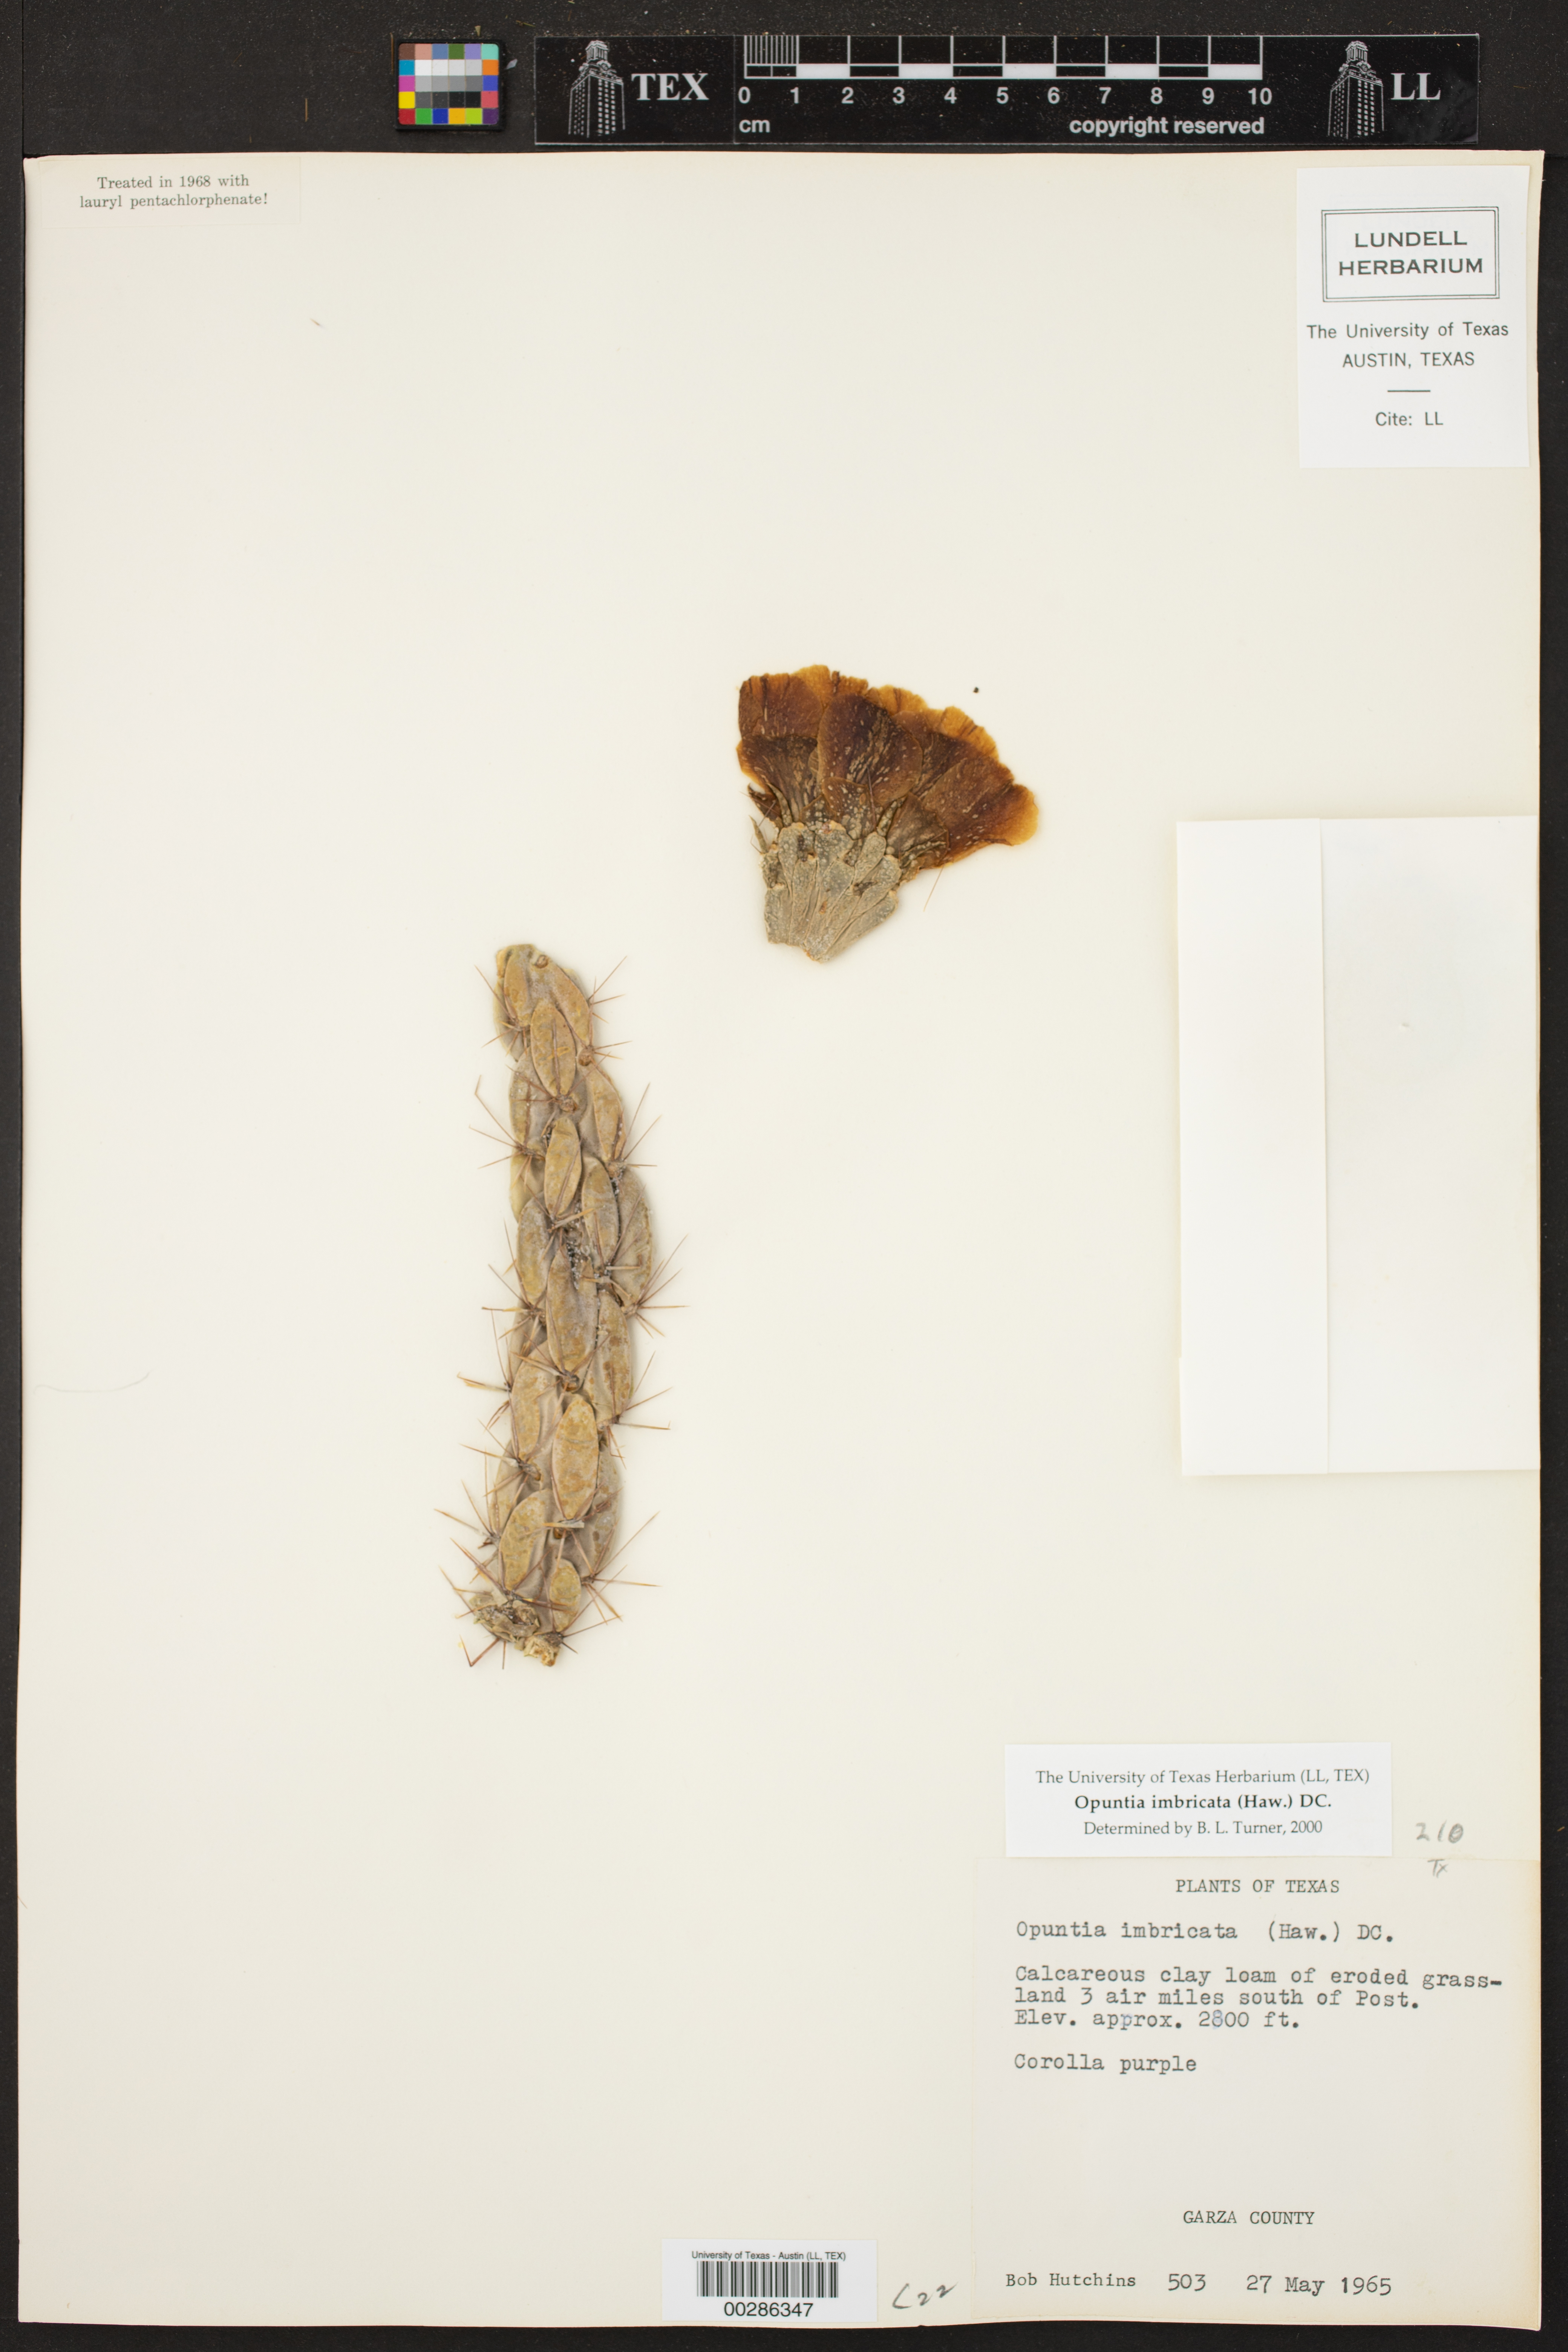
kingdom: Plantae
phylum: Tracheophyta
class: Magnoliopsida
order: Caryophyllales
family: Cactaceae
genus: Cylindropuntia
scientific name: Cylindropuntia
